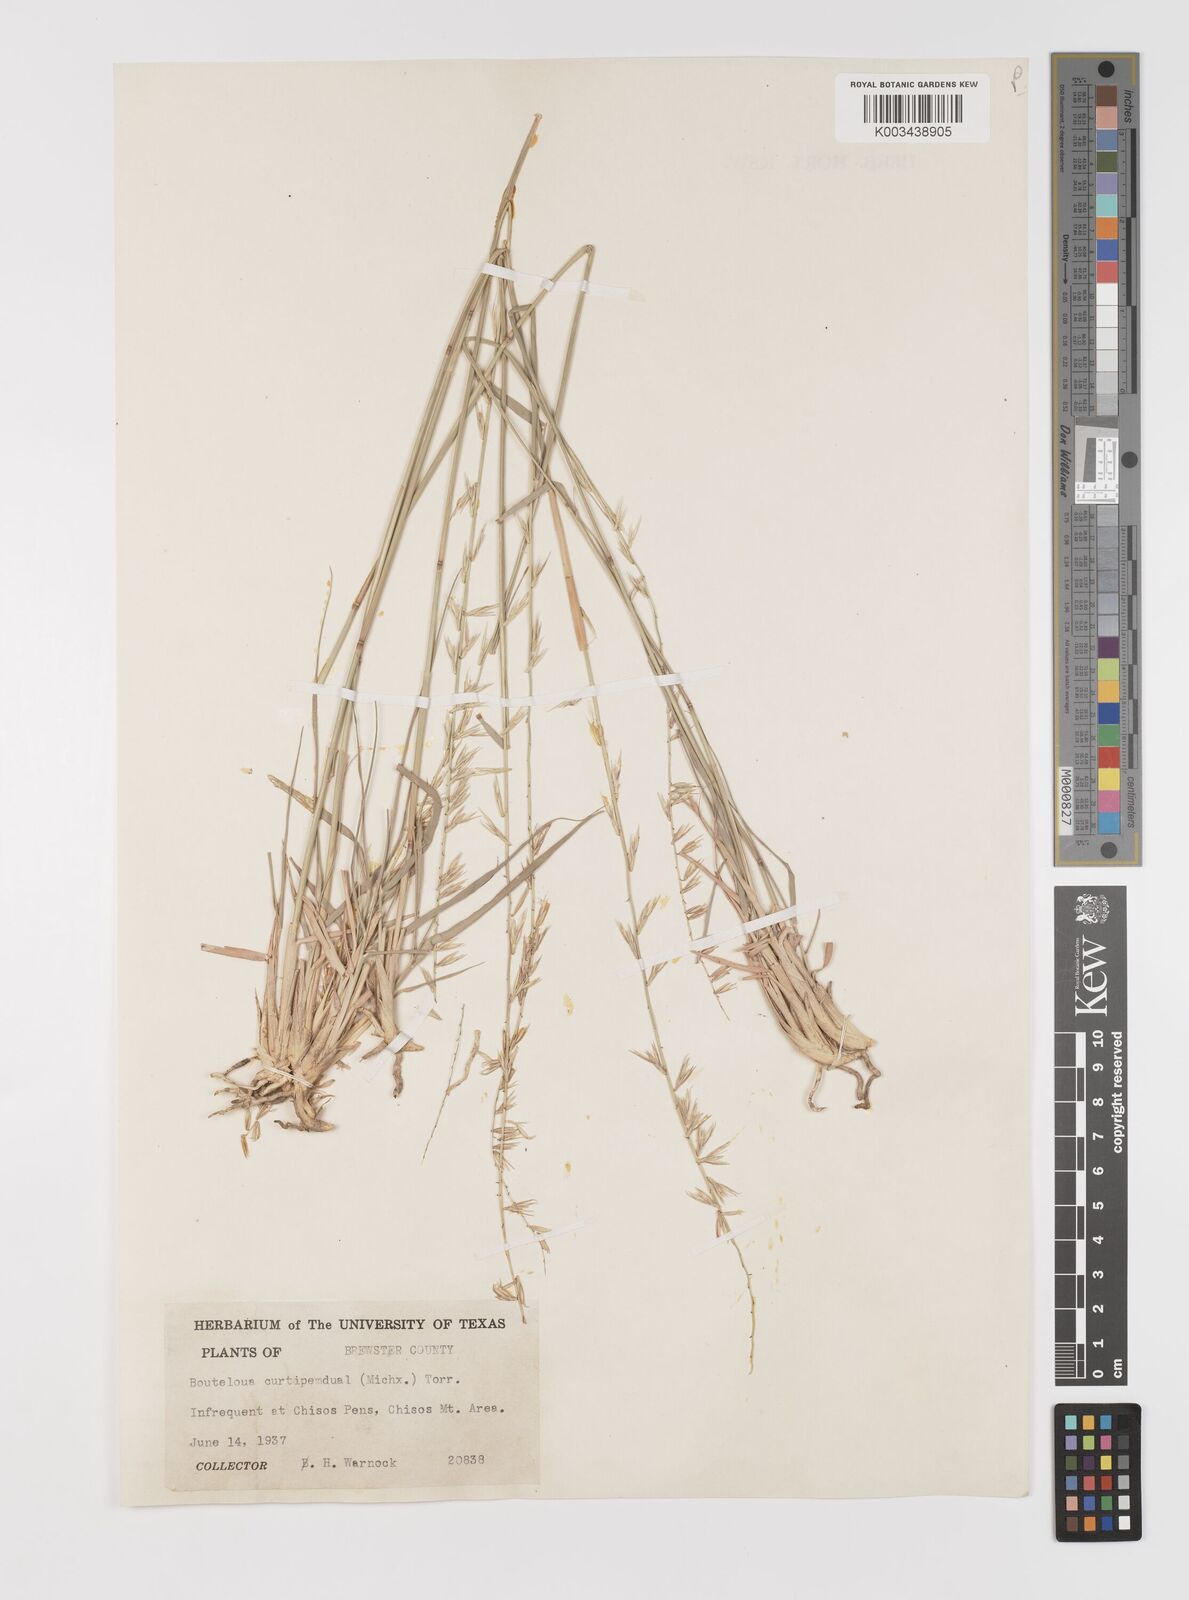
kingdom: Plantae
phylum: Tracheophyta
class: Liliopsida
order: Poales
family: Poaceae
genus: Bouteloua
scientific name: Bouteloua curtipendula
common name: Side-oats grama
